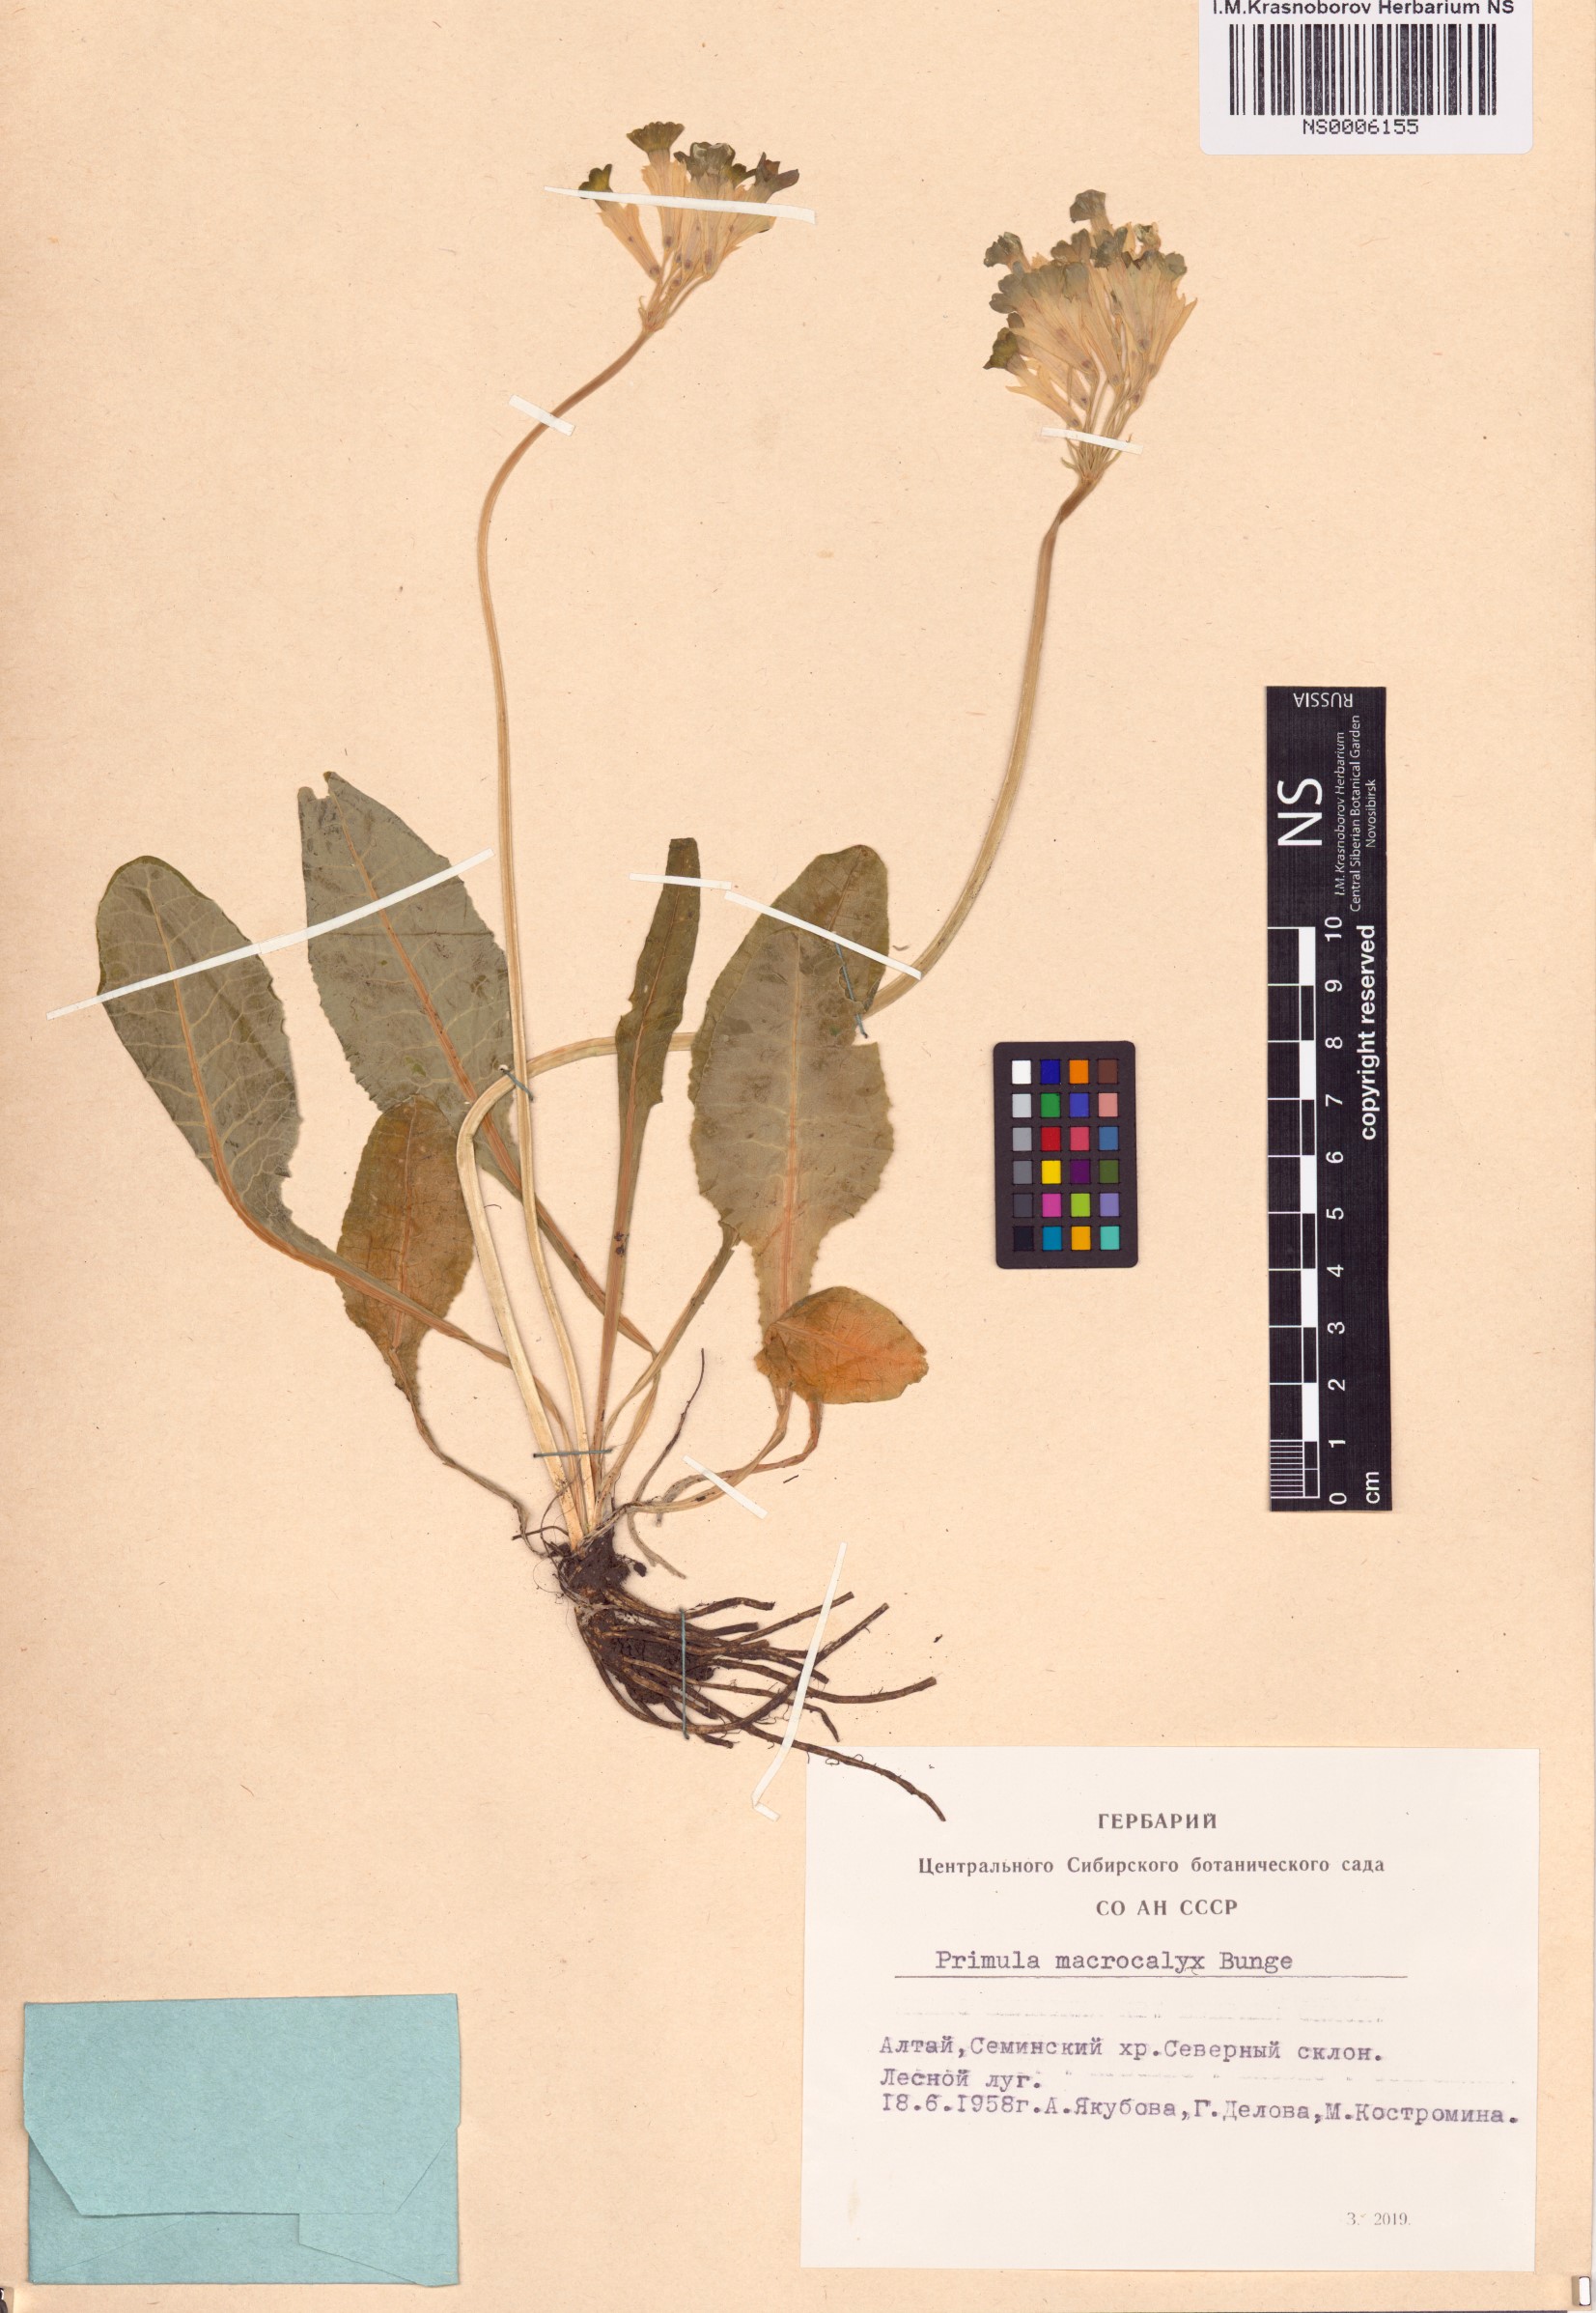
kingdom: Plantae
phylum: Tracheophyta
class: Magnoliopsida
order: Ericales
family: Primulaceae
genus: Primula
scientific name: Primula veris
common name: Cowslip
